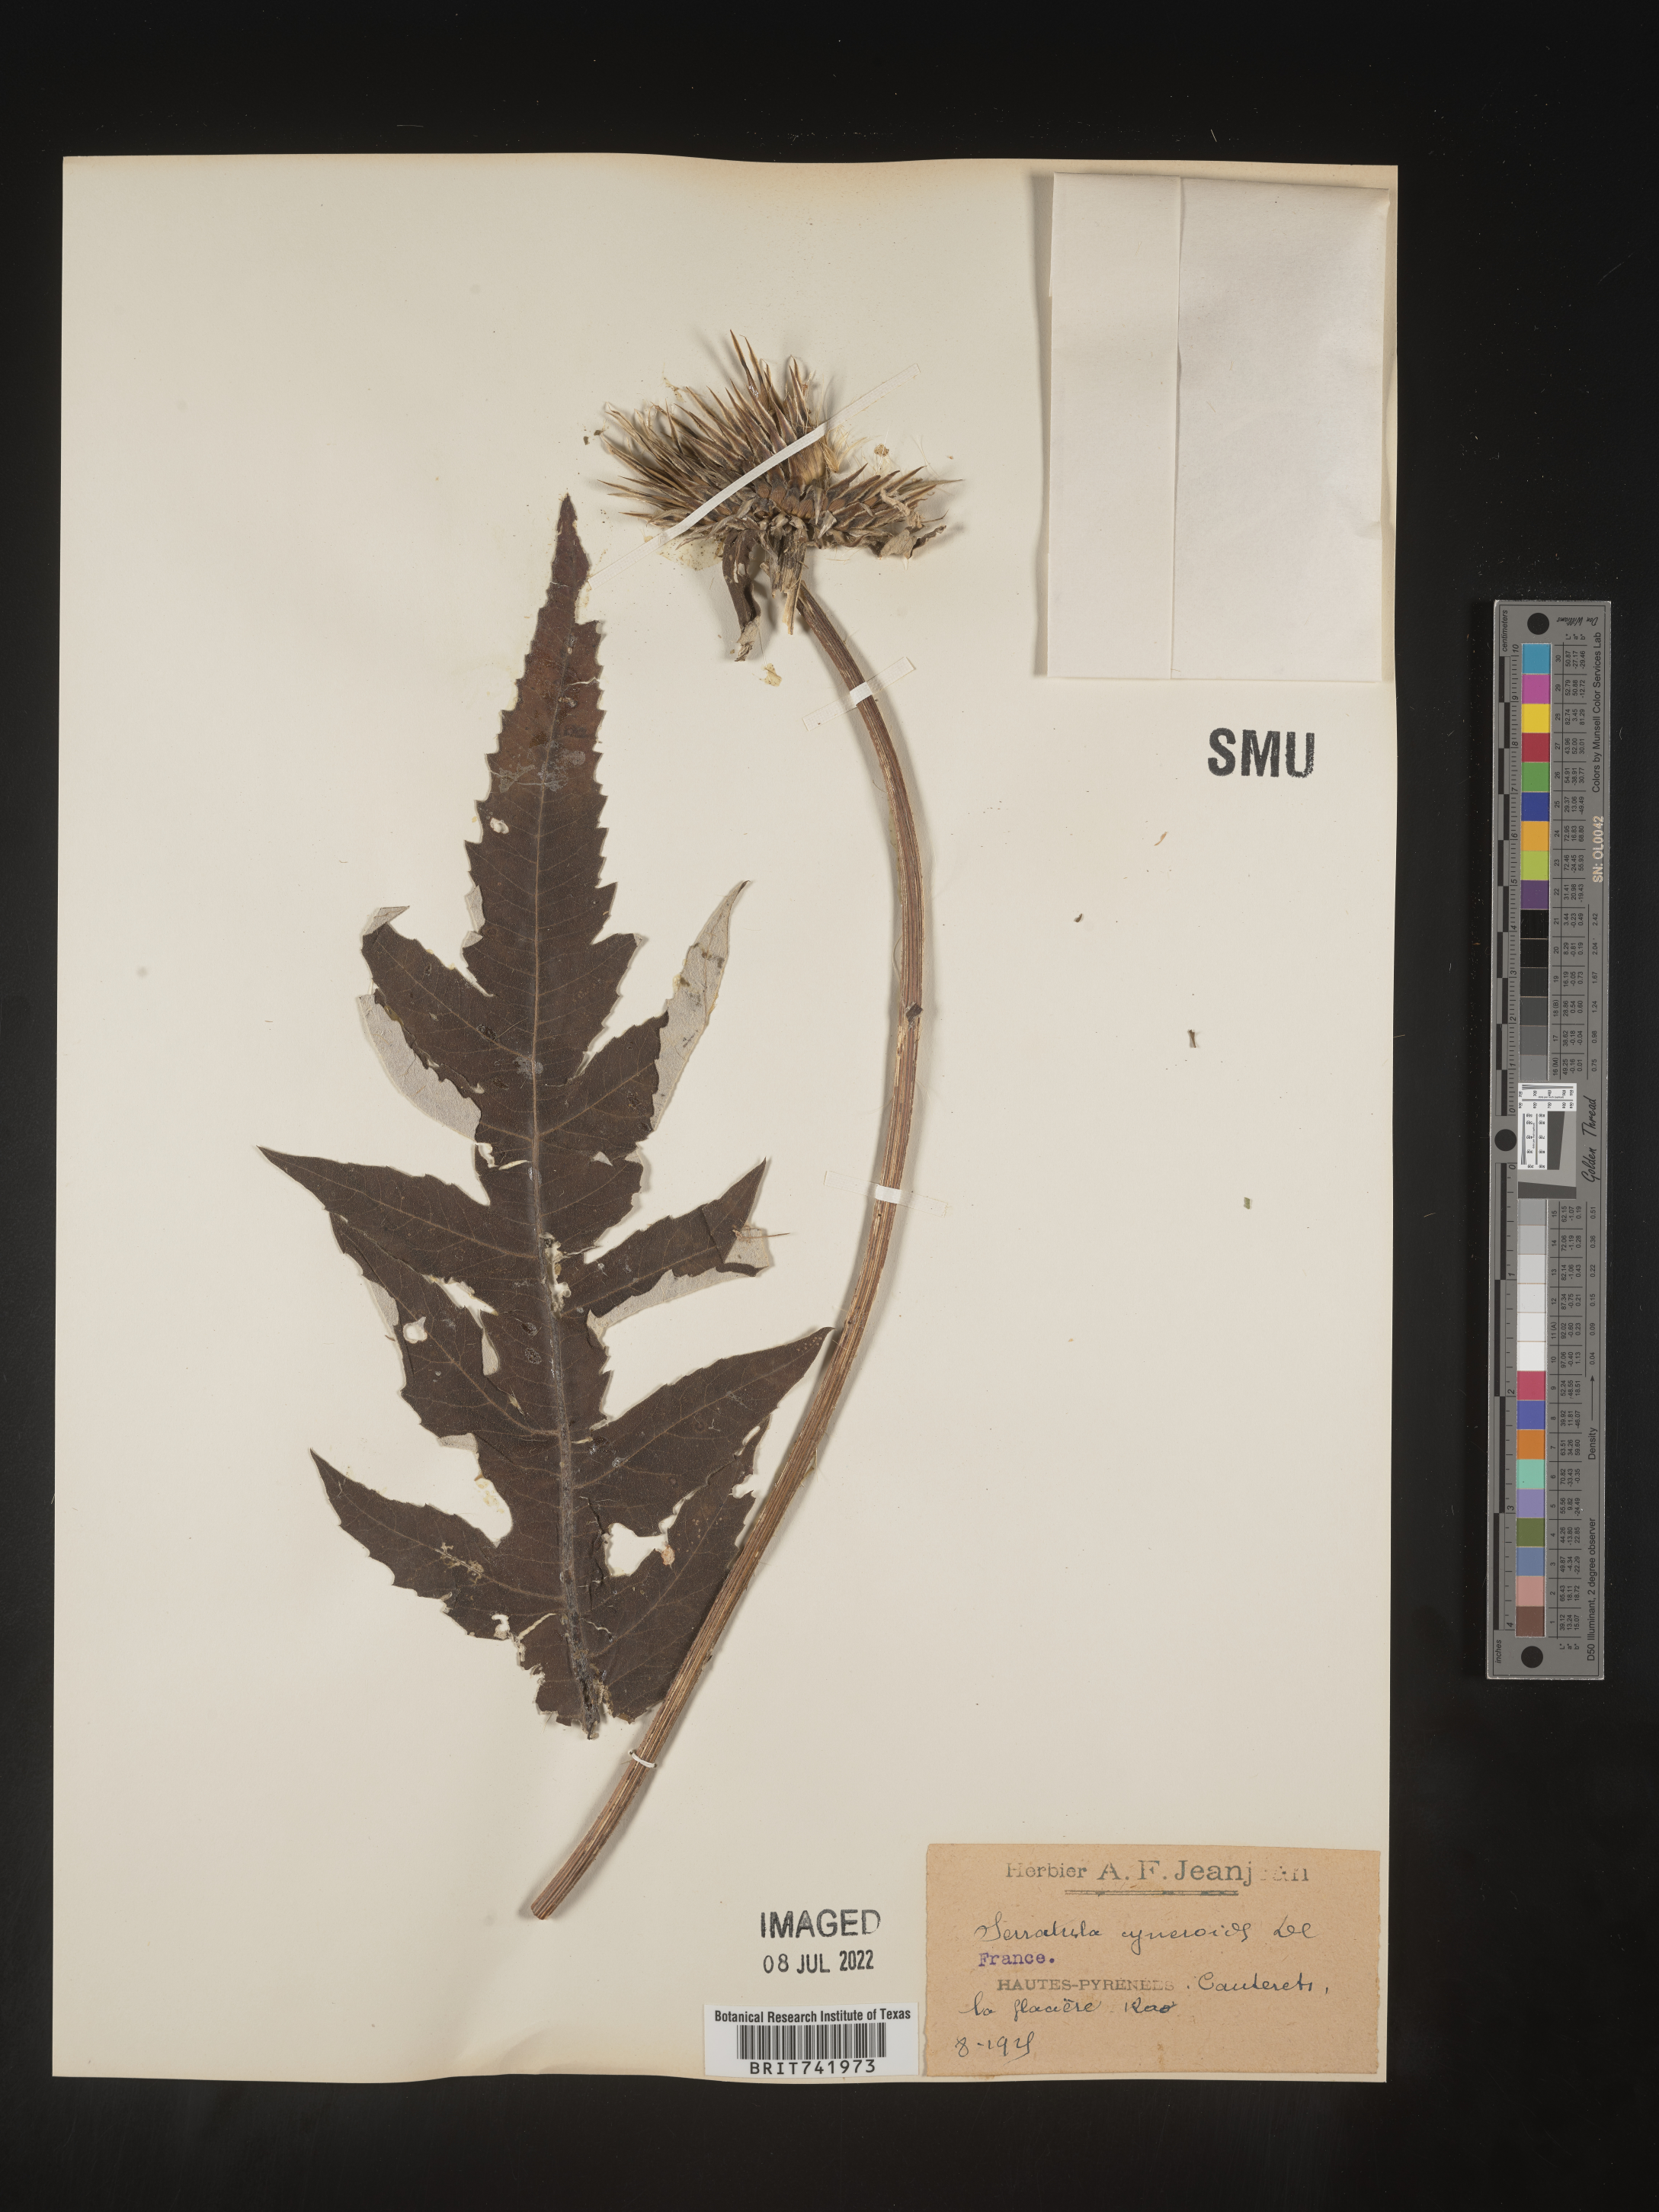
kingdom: Plantae
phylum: Tracheophyta
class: Magnoliopsida
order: Asterales
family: Asteraceae
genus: Serratula
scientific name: Serratula
